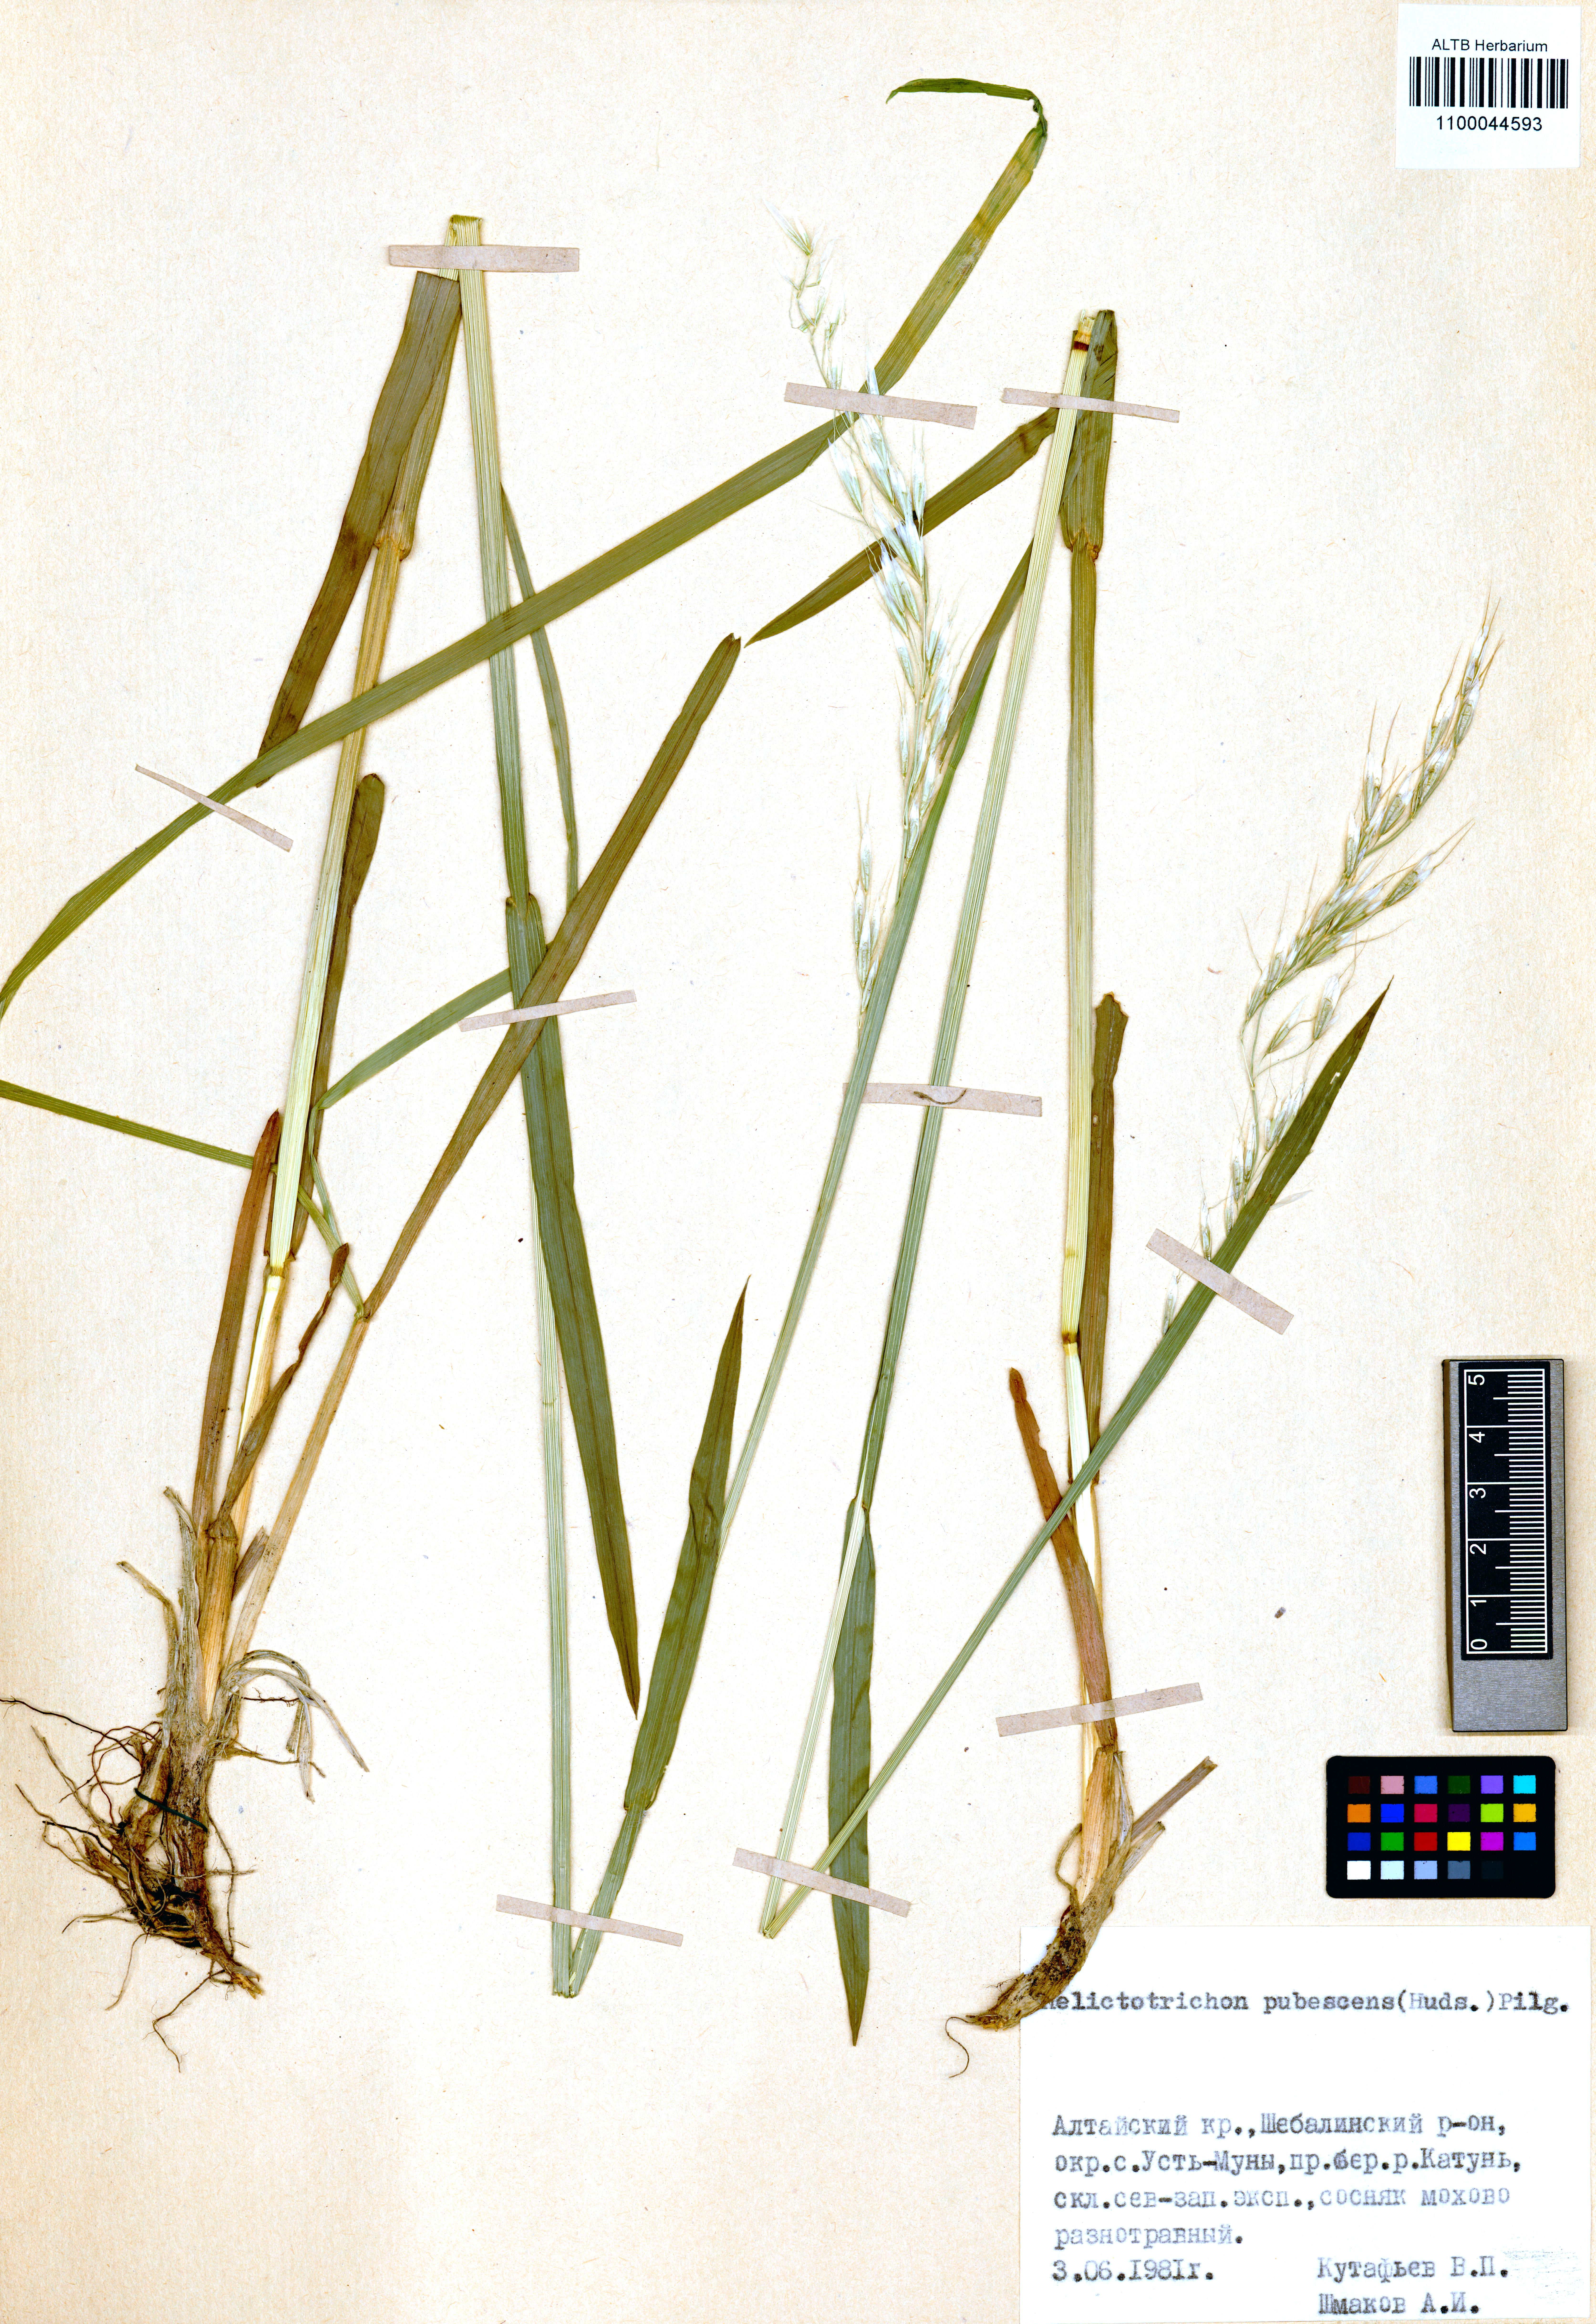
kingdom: Plantae
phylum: Tracheophyta
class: Liliopsida
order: Poales
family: Poaceae
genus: Avenula
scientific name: Avenula pubescens
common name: Downy alpine oatgrass
